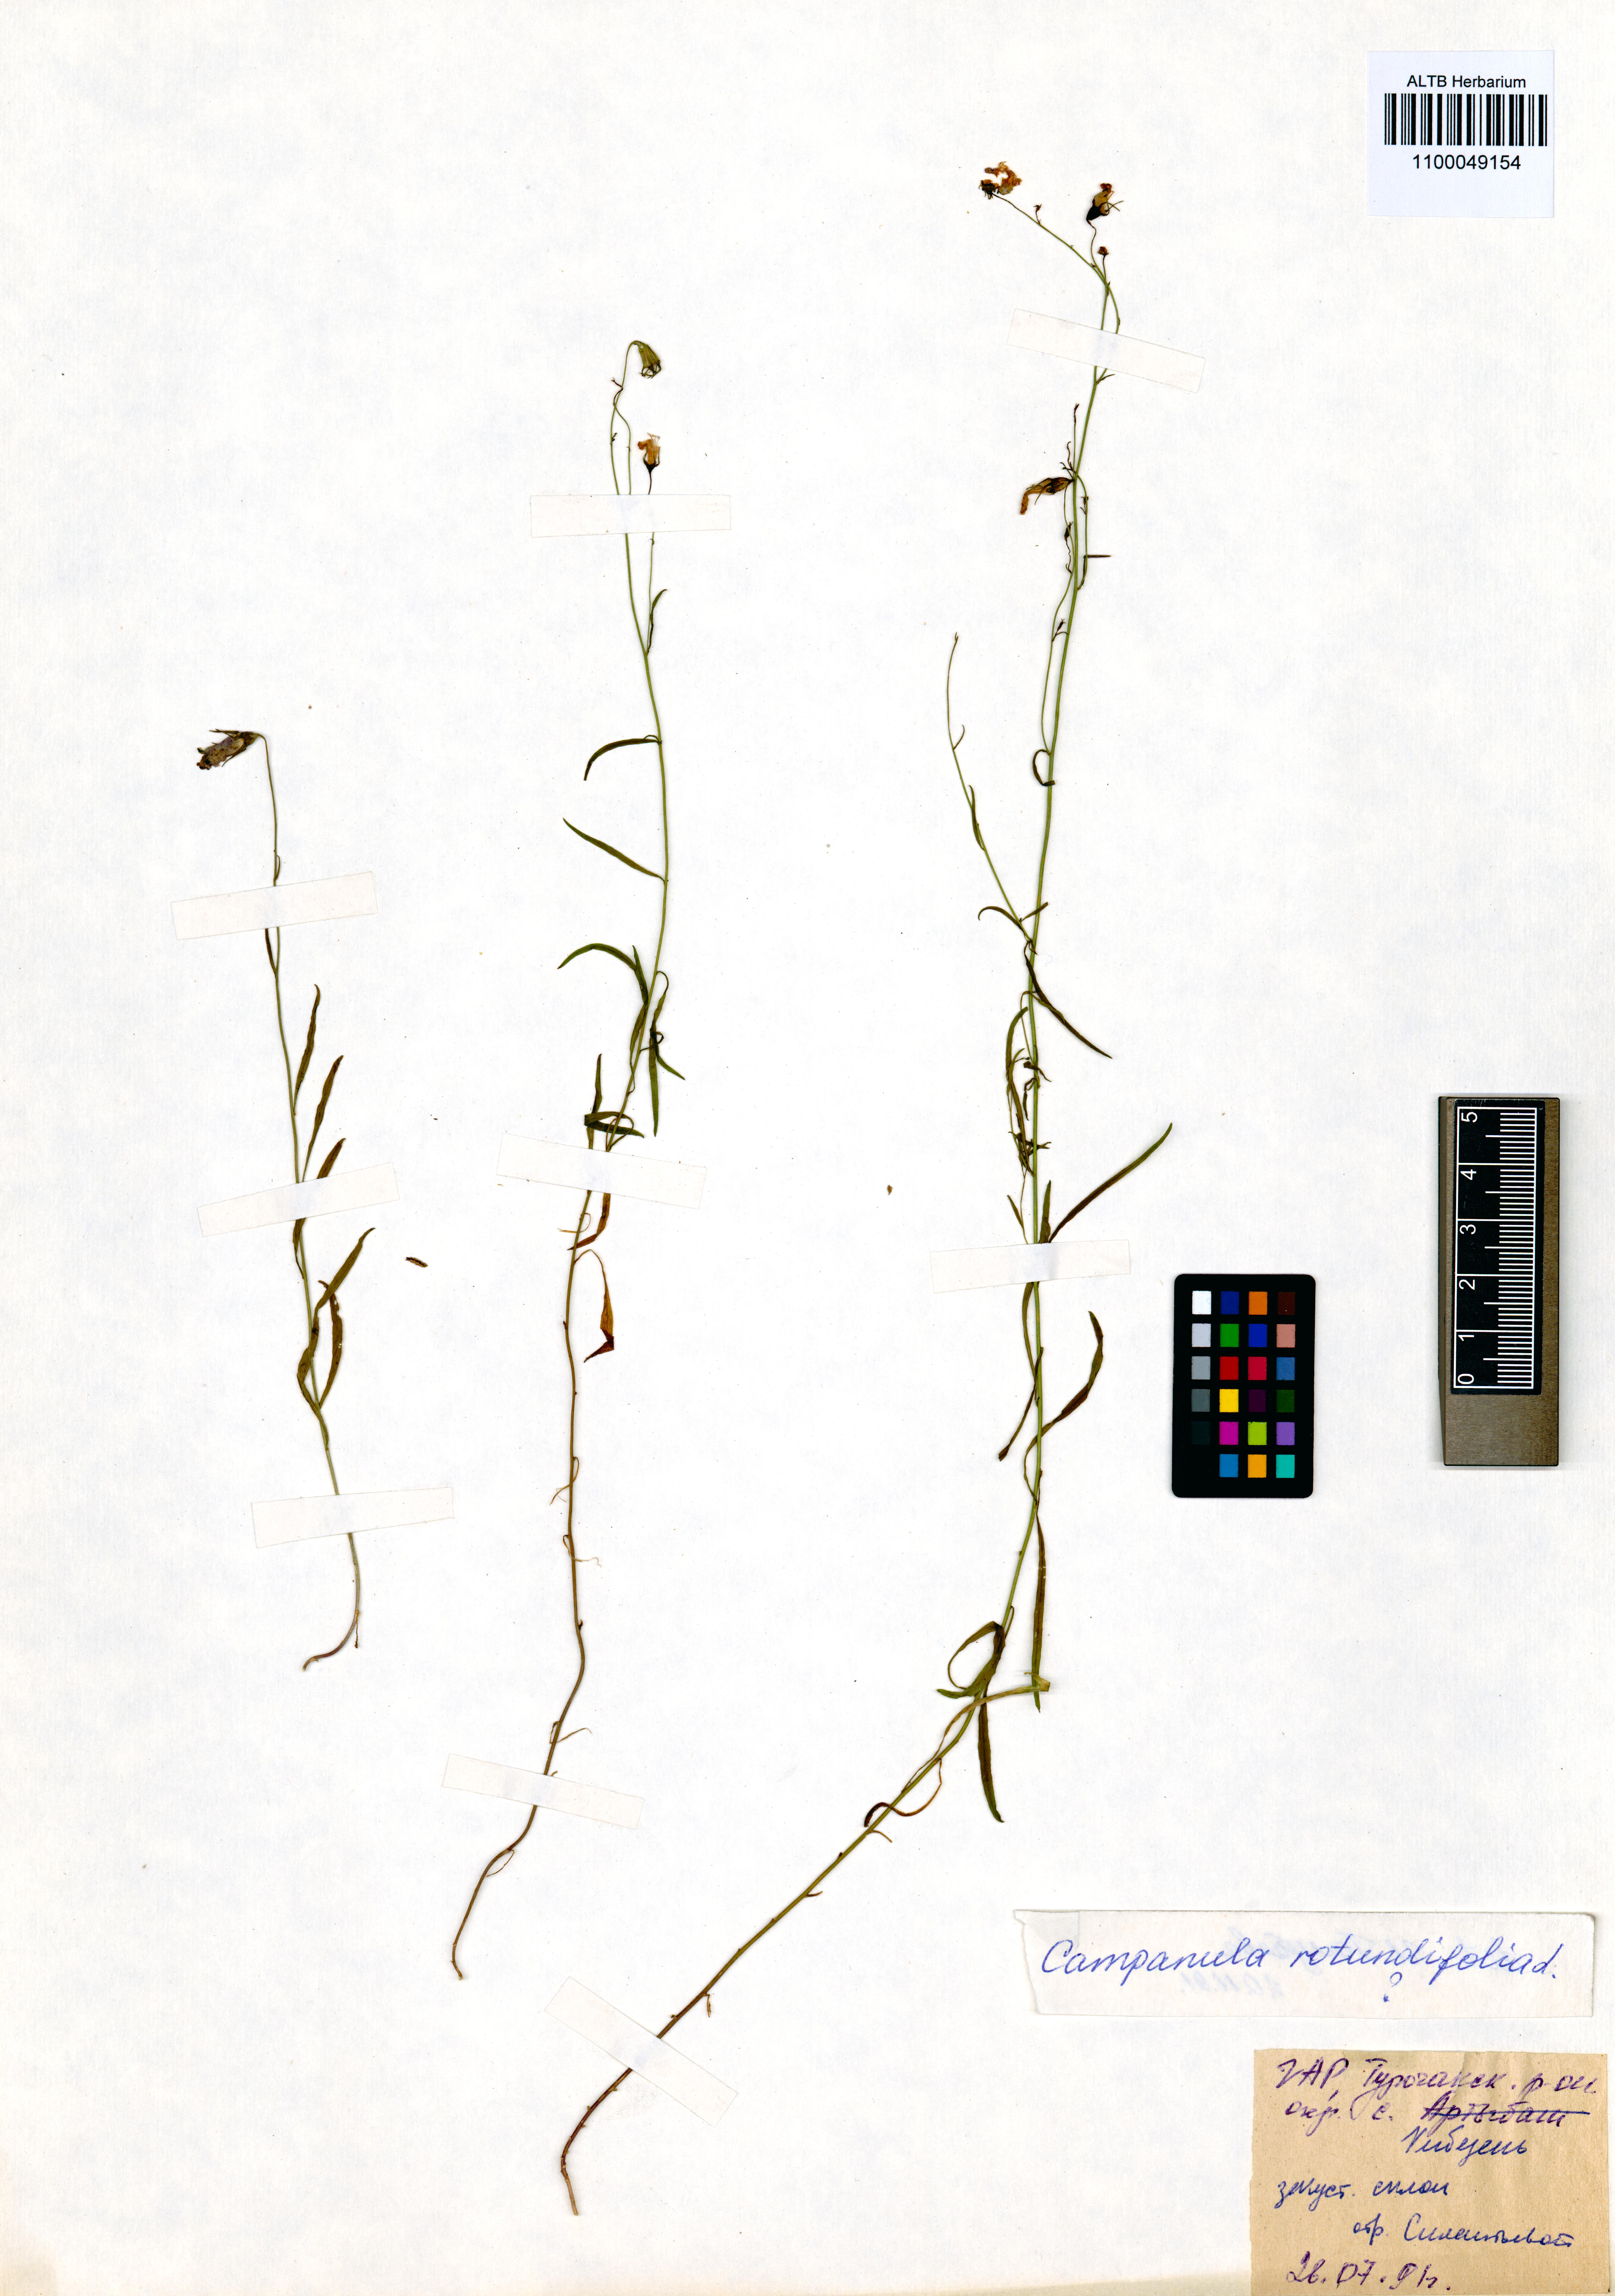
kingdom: Plantae
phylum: Tracheophyta
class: Magnoliopsida
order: Asterales
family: Campanulaceae
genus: Campanula
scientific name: Campanula rotundifolia
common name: Harebell
